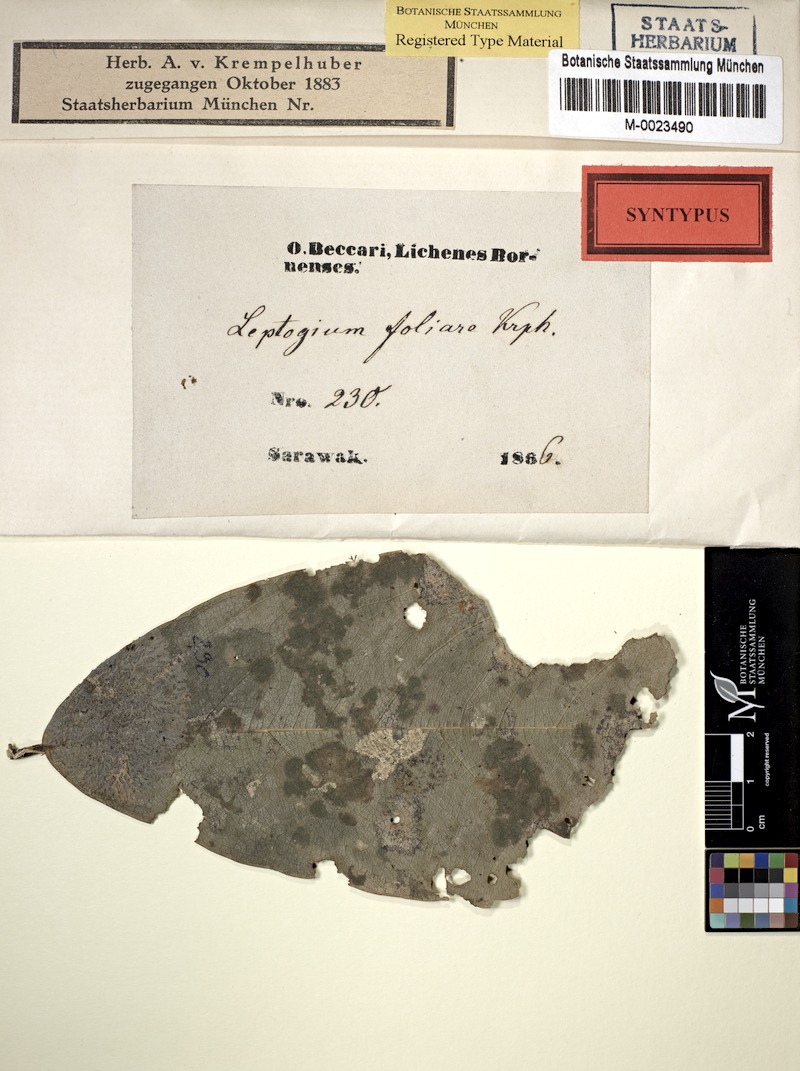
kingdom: Fungi
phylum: Ascomycota
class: Lecanoromycetes
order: Peltigerales
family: Collemataceae
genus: Leptogium
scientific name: Leptogium
